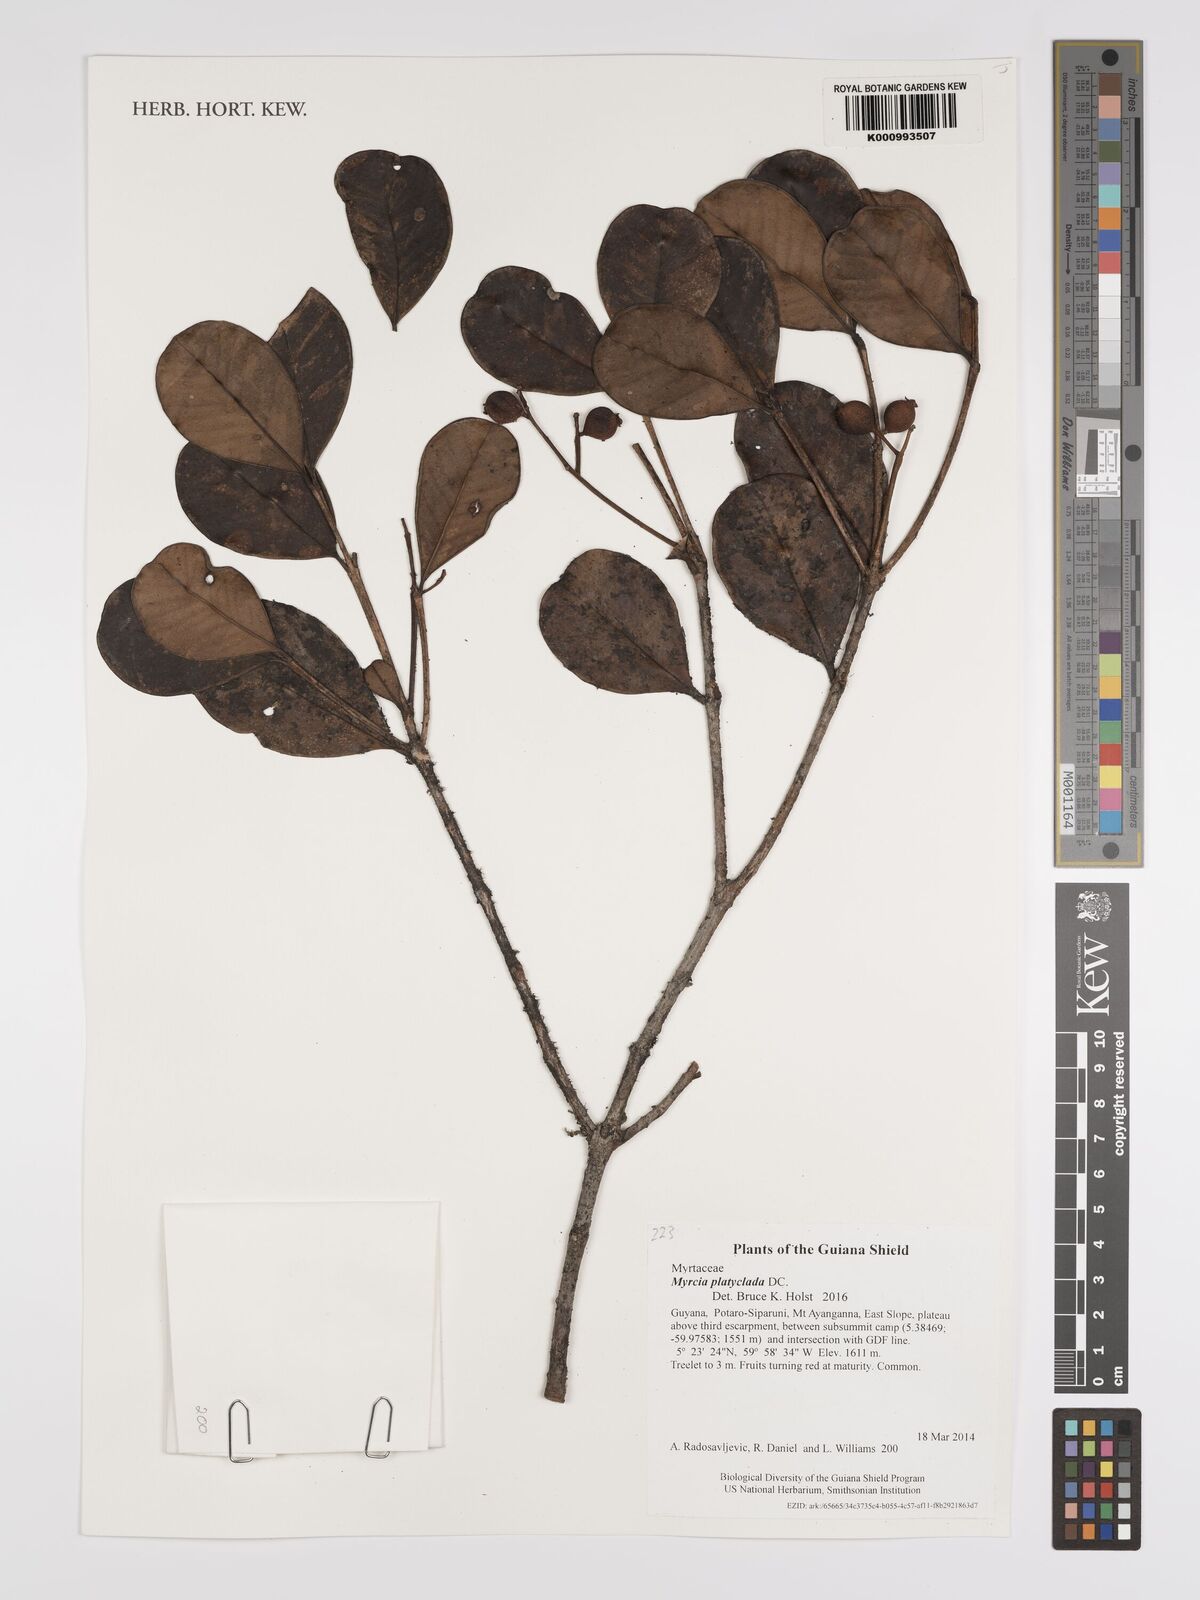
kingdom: Plantae
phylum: Tracheophyta
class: Magnoliopsida
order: Myrtales
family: Myrtaceae
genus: Myrcia
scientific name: Myrcia platyclada
